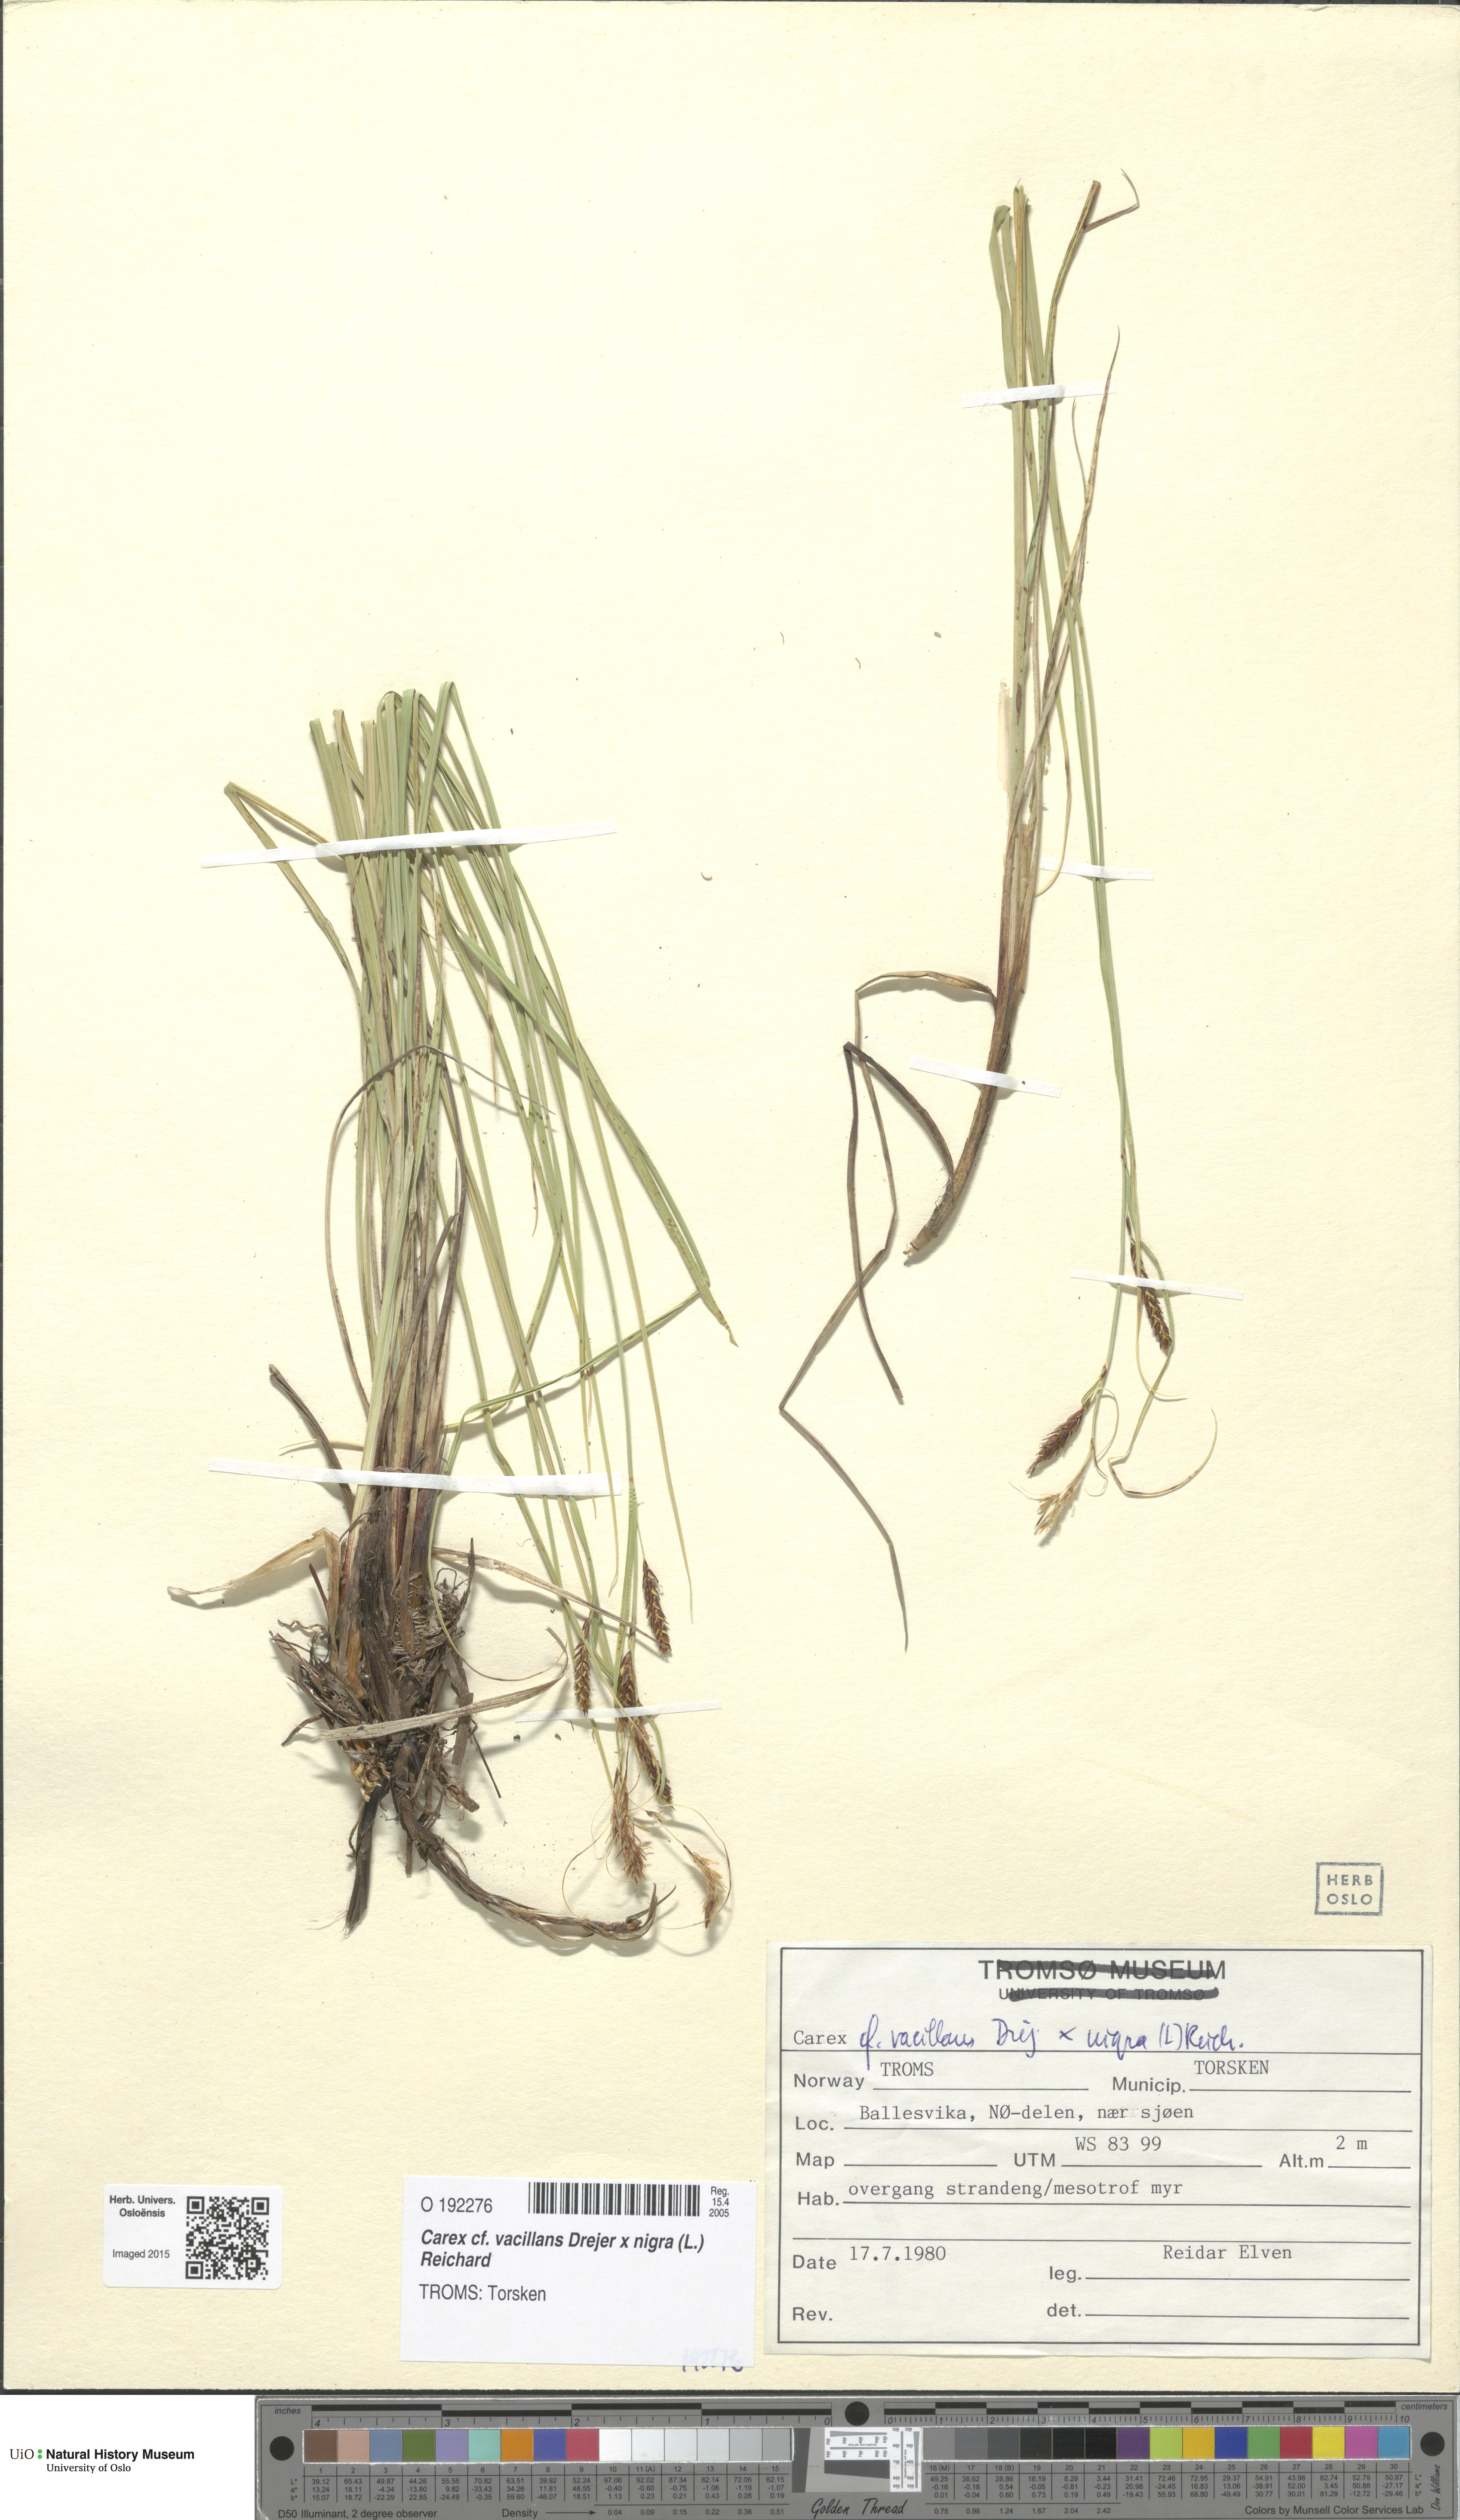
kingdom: Plantae
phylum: Tracheophyta
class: Liliopsida
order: Poales
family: Cyperaceae
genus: Carex
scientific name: Carex
